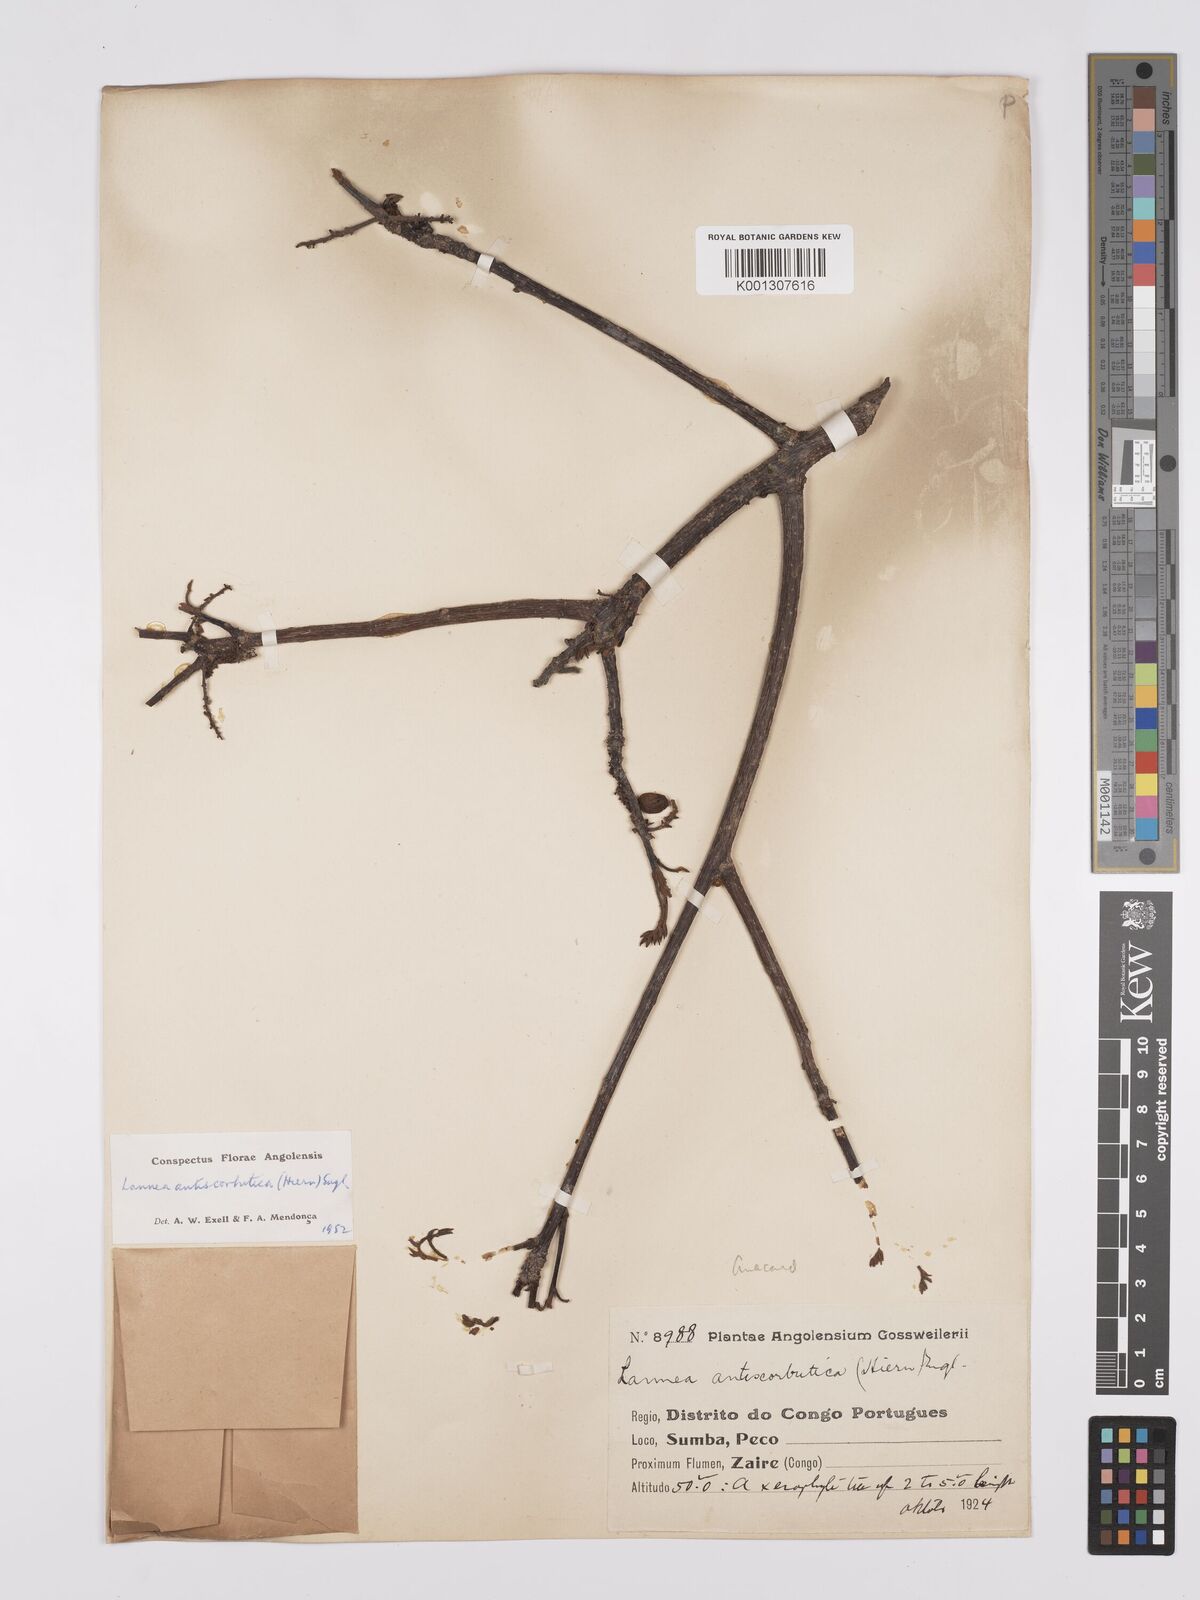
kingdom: Plantae
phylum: Tracheophyta
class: Magnoliopsida
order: Sapindales
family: Anacardiaceae
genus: Lannea
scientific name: Lannea antiscorbutica
